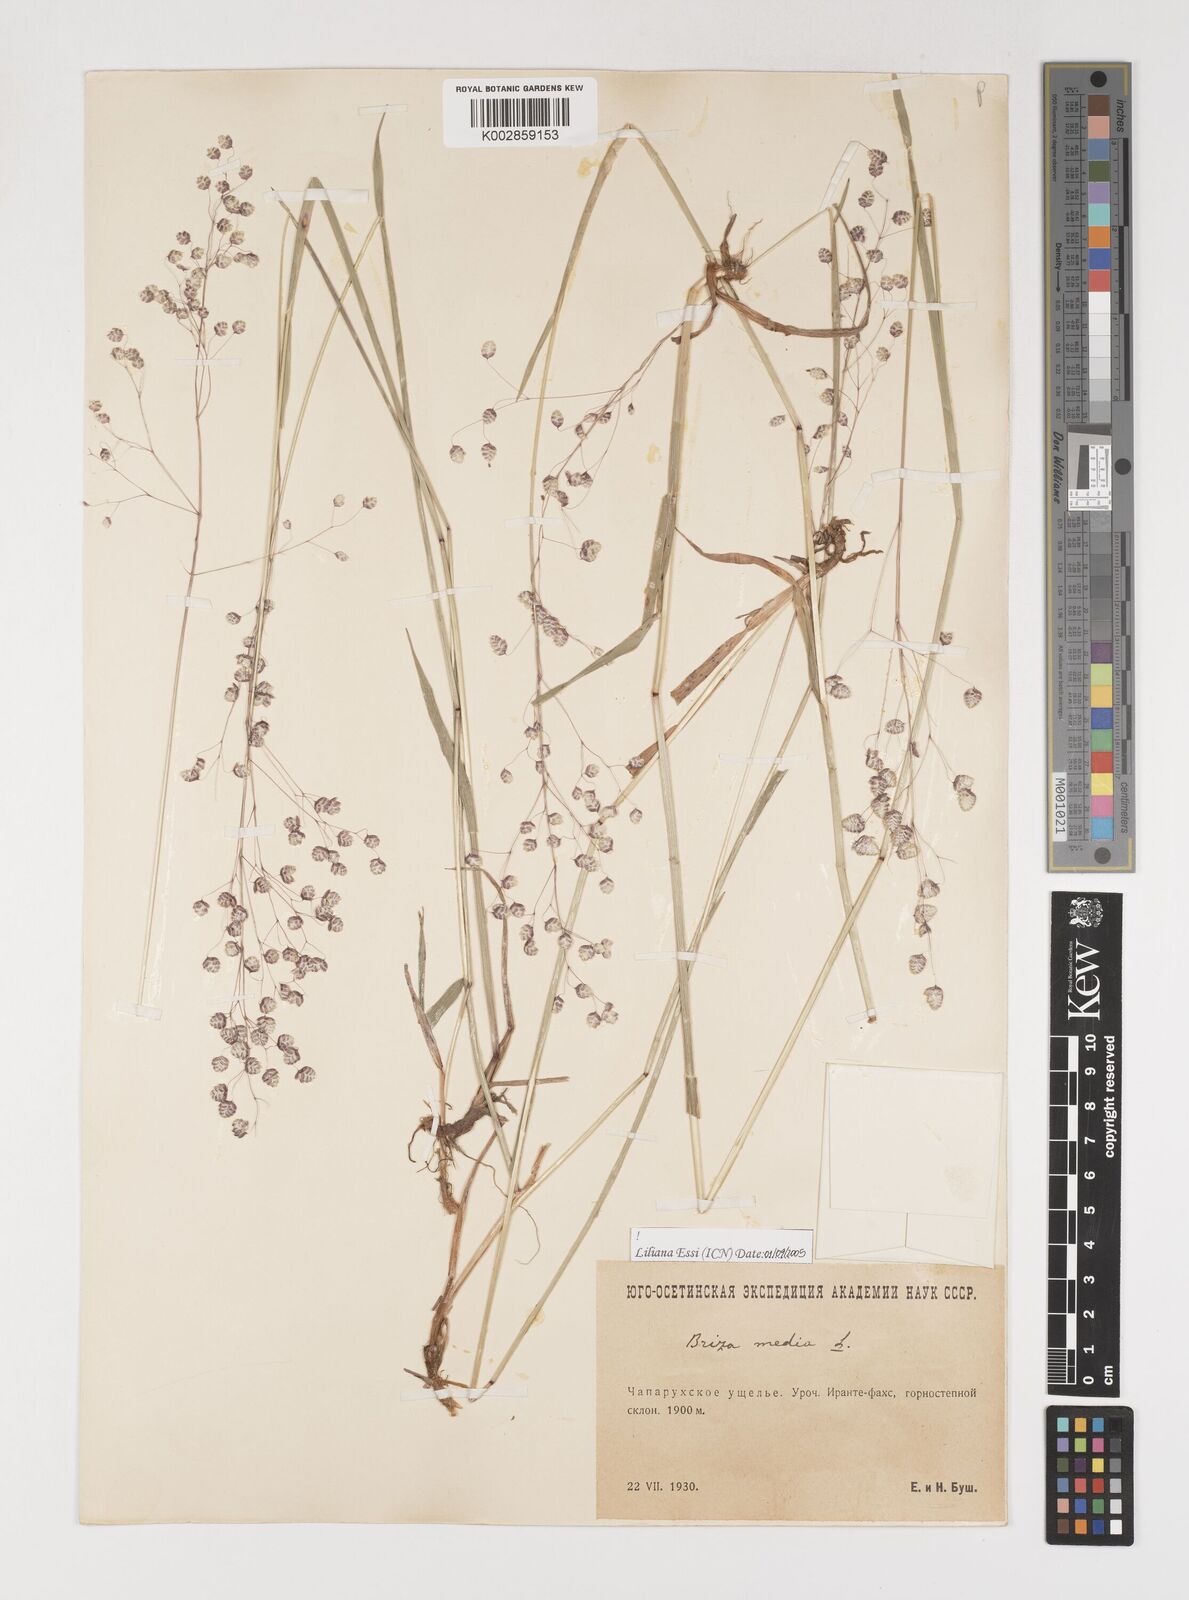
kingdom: Plantae
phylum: Tracheophyta
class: Liliopsida
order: Poales
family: Poaceae
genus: Briza
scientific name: Briza media
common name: Quaking grass
